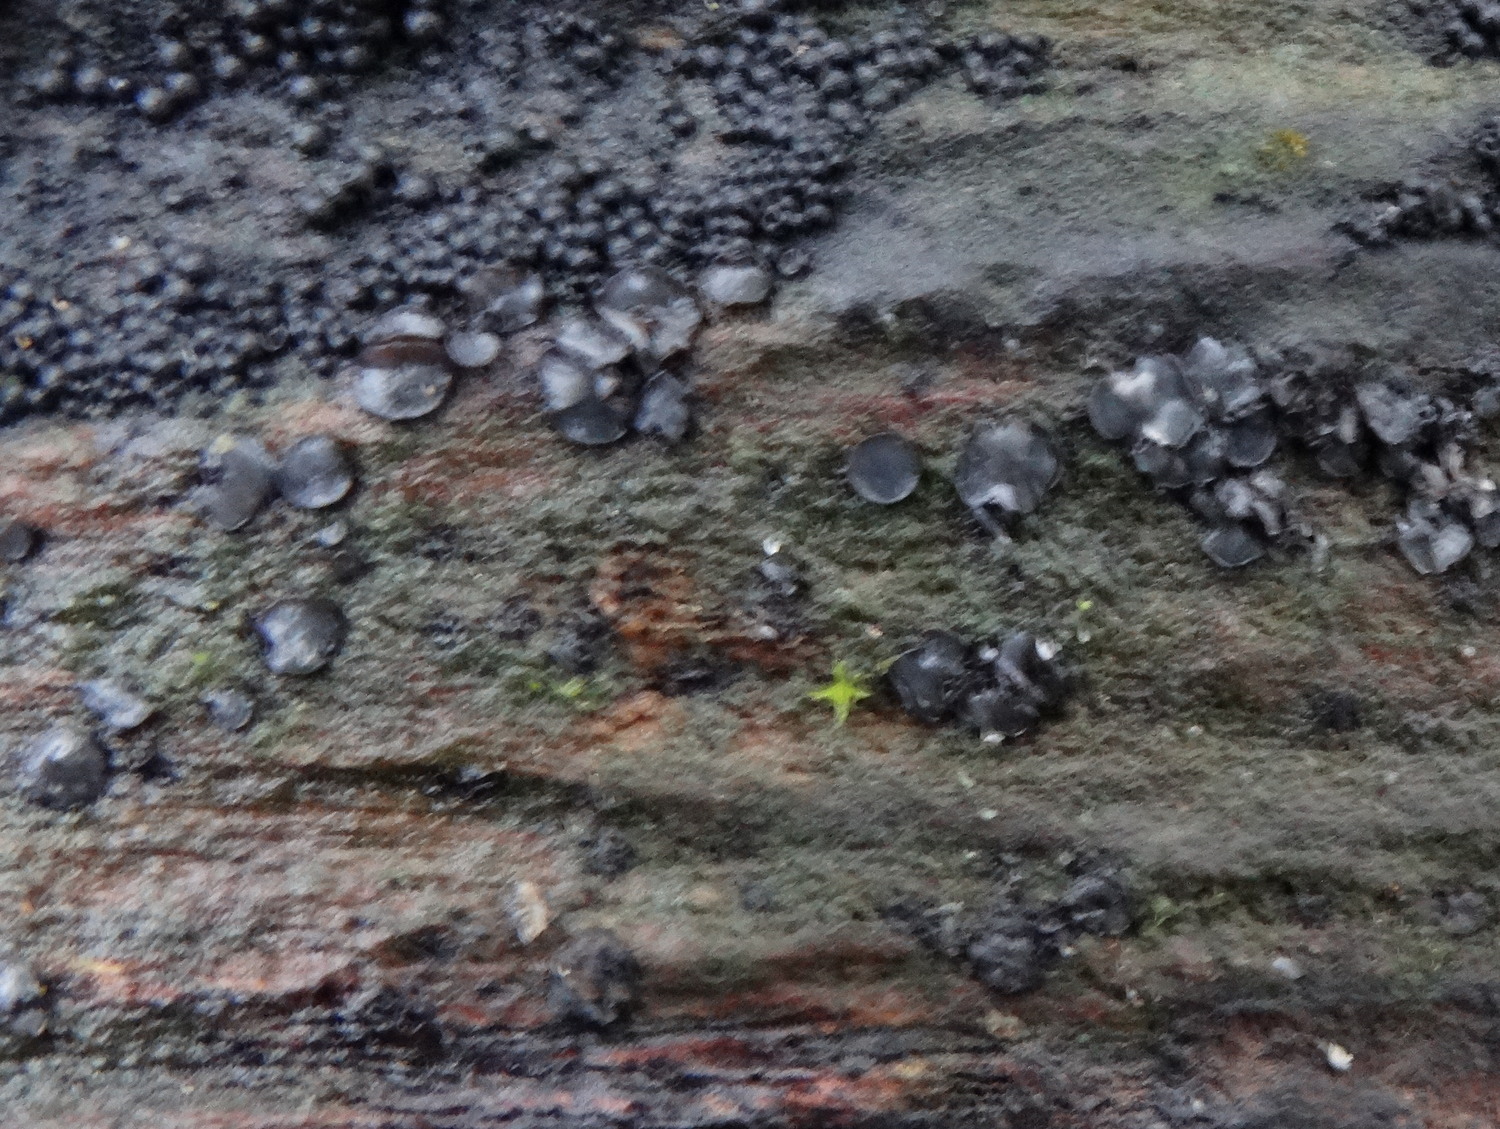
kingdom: Fungi
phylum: Ascomycota
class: Leotiomycetes
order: Helotiales
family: Mollisiaceae
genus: Mollisia
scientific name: Mollisia
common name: gråskive
